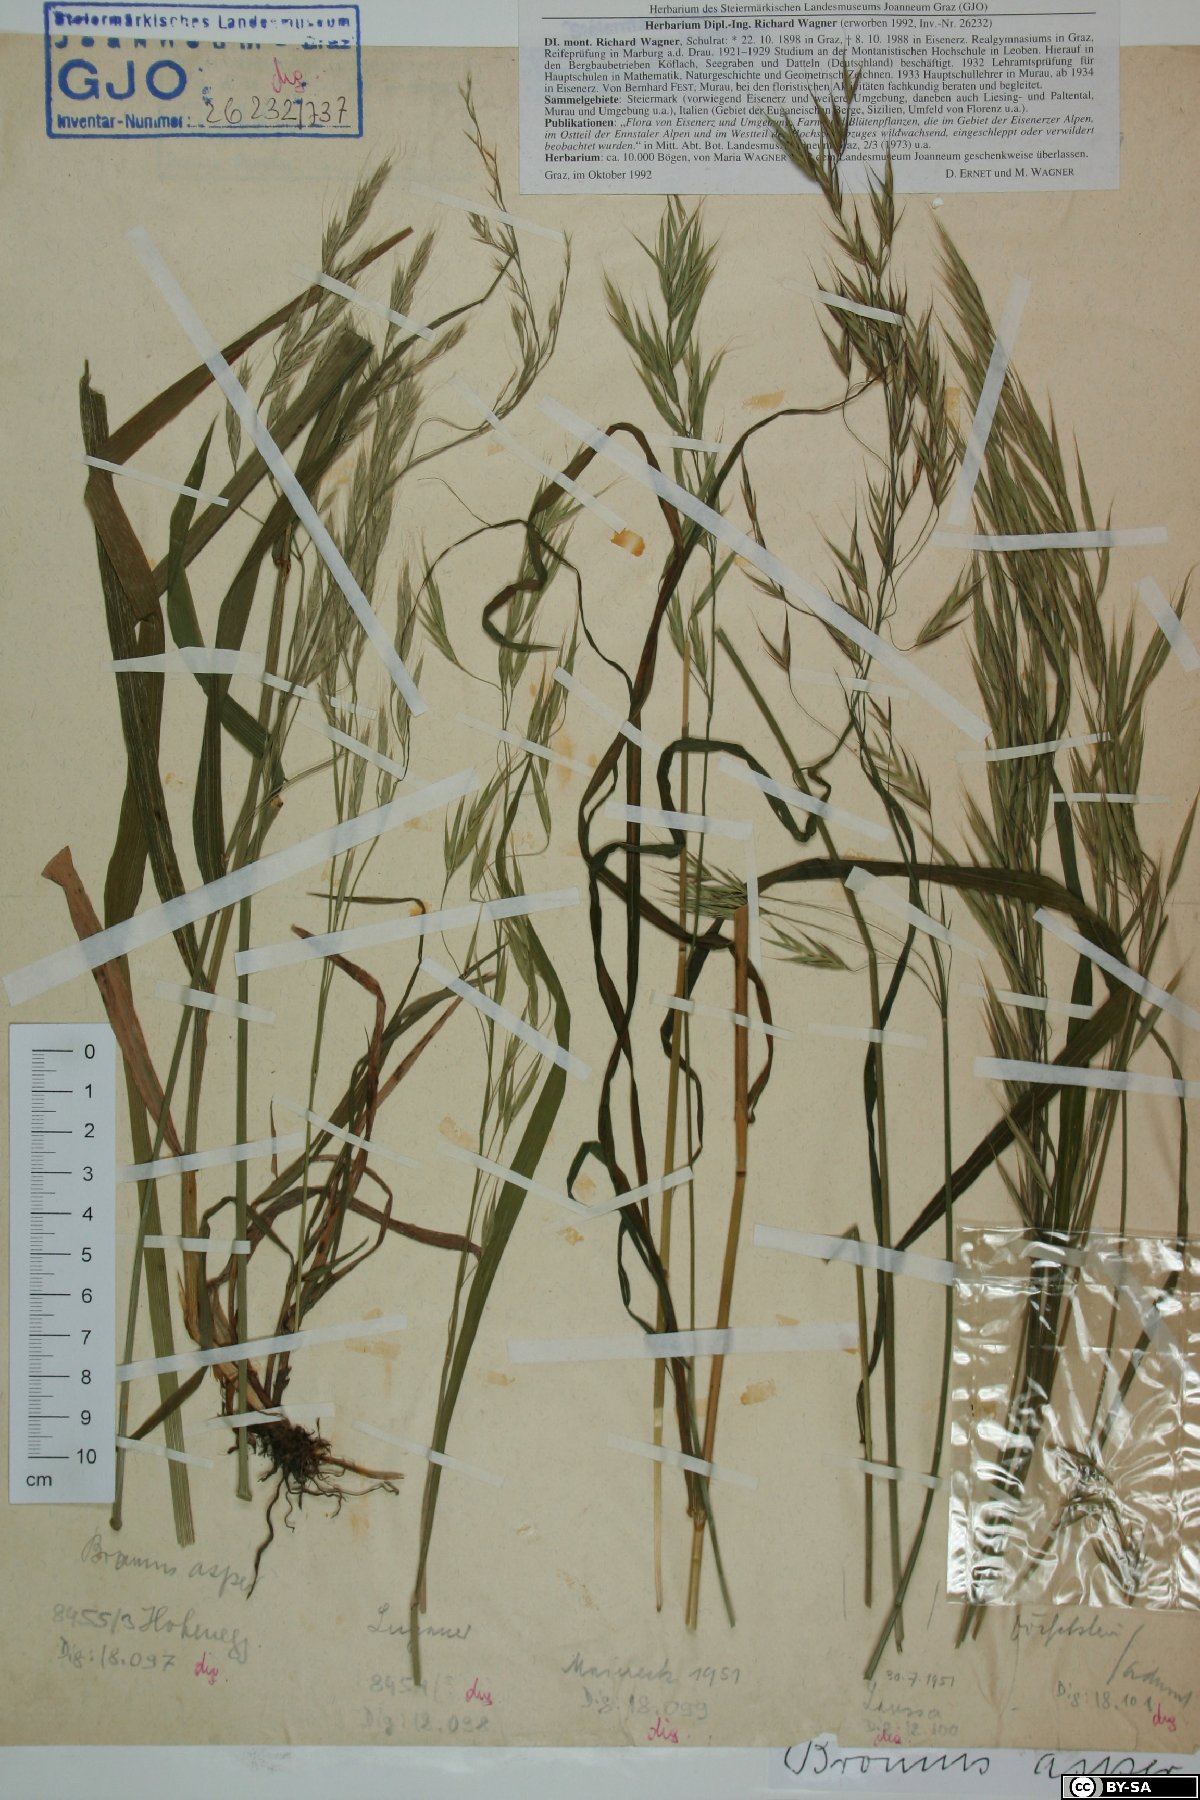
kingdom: Plantae
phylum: Tracheophyta
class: Liliopsida
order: Poales
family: Poaceae
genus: Bromus
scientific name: Bromus ramosus
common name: Hairy brome
